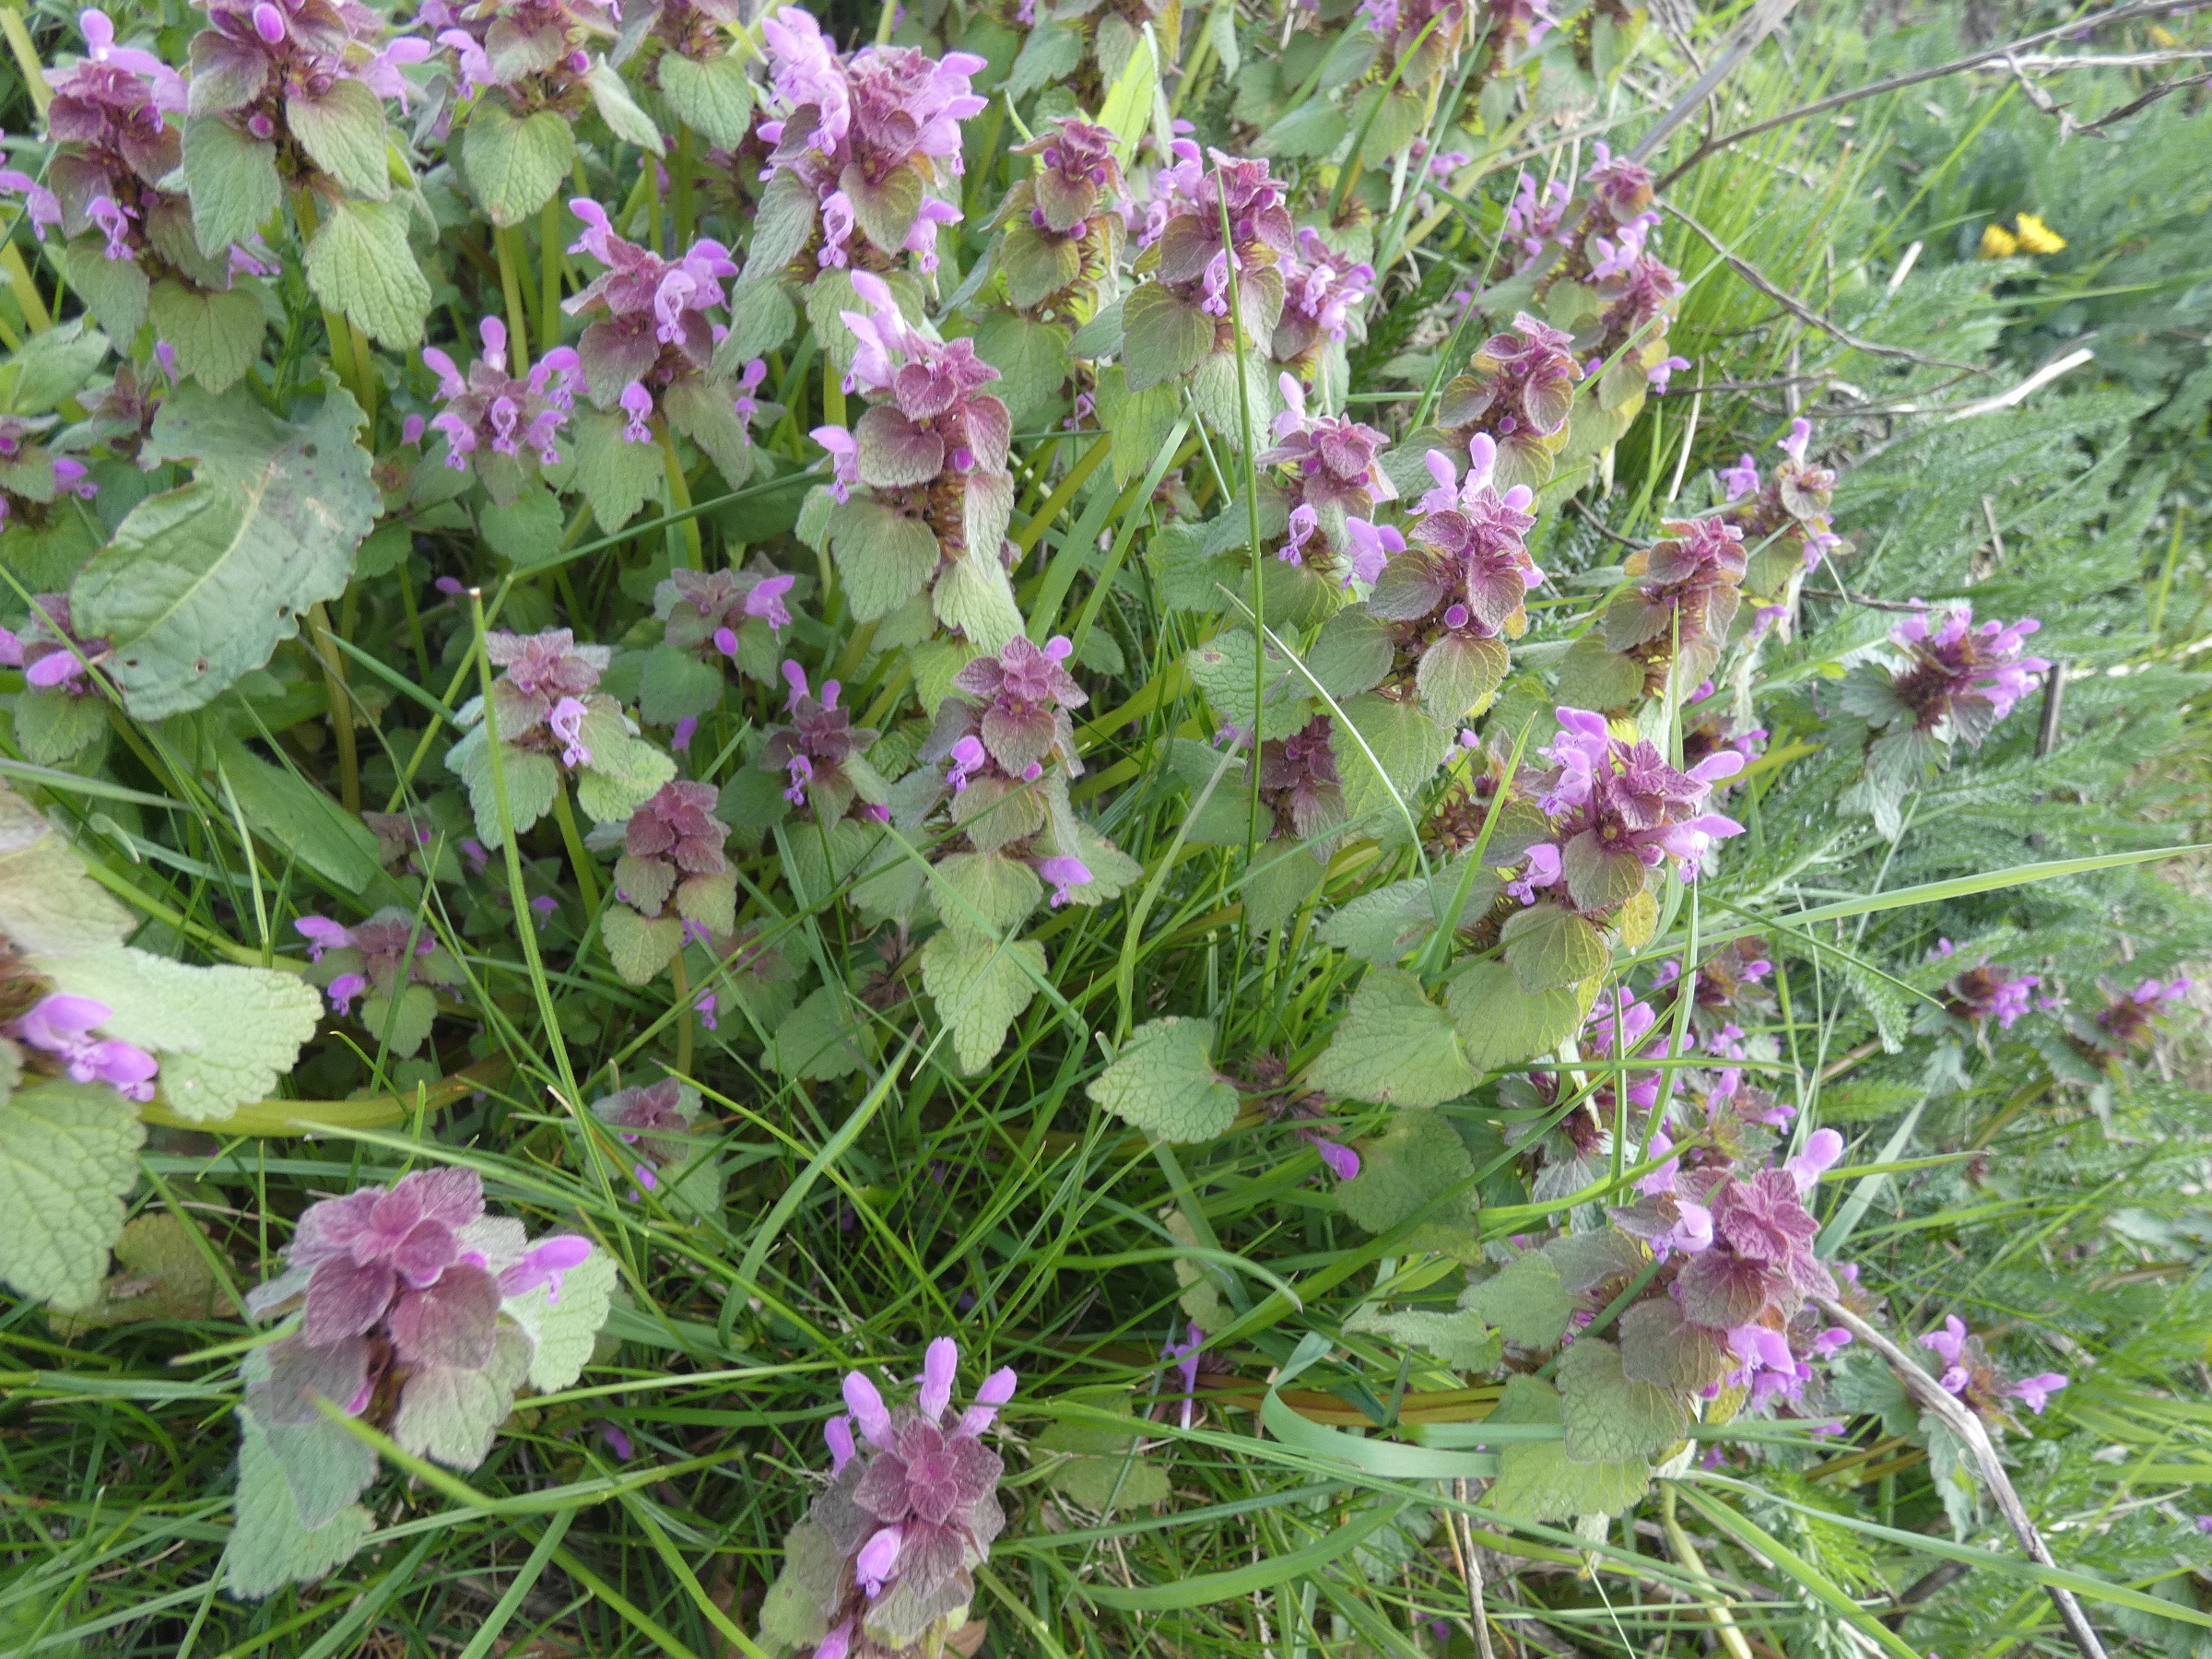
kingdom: Plantae
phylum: Tracheophyta
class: Magnoliopsida
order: Lamiales
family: Lamiaceae
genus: Lamium
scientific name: Lamium purpureum
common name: Rød tvetand
